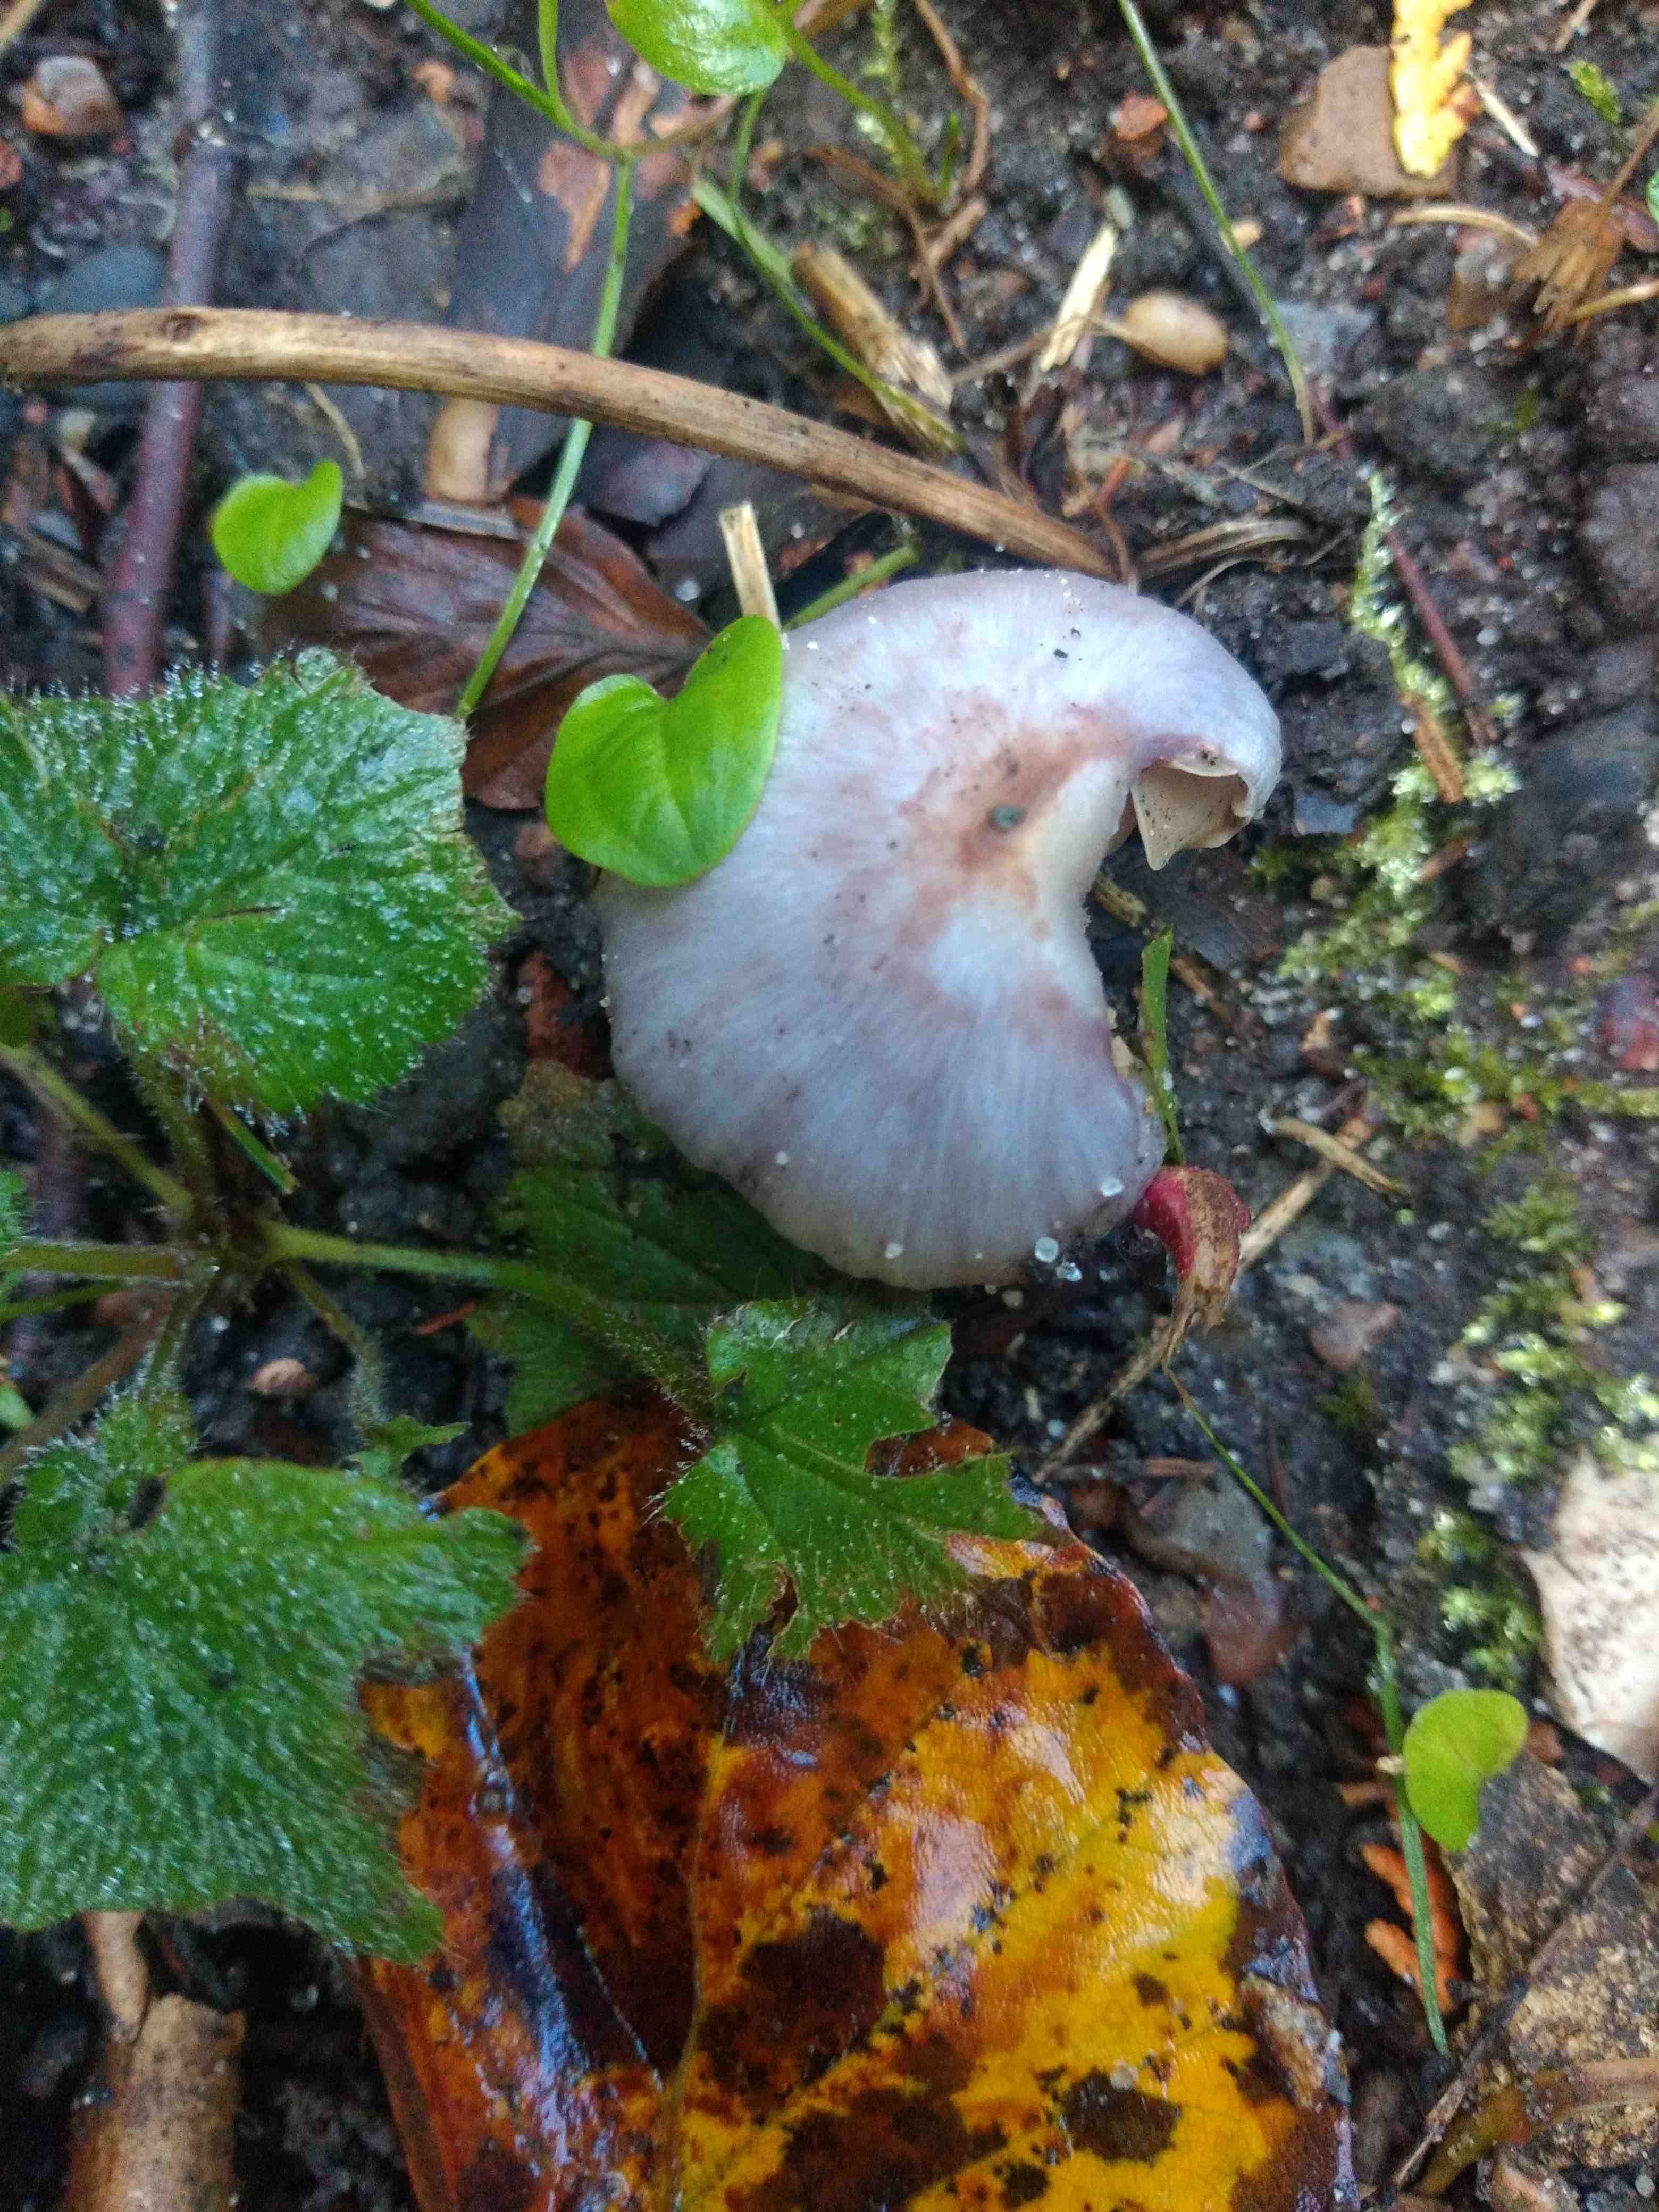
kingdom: Fungi
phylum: Basidiomycota
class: Agaricomycetes
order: Agaricales
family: Inocybaceae
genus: Inocybe
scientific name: Inocybe geophylla
